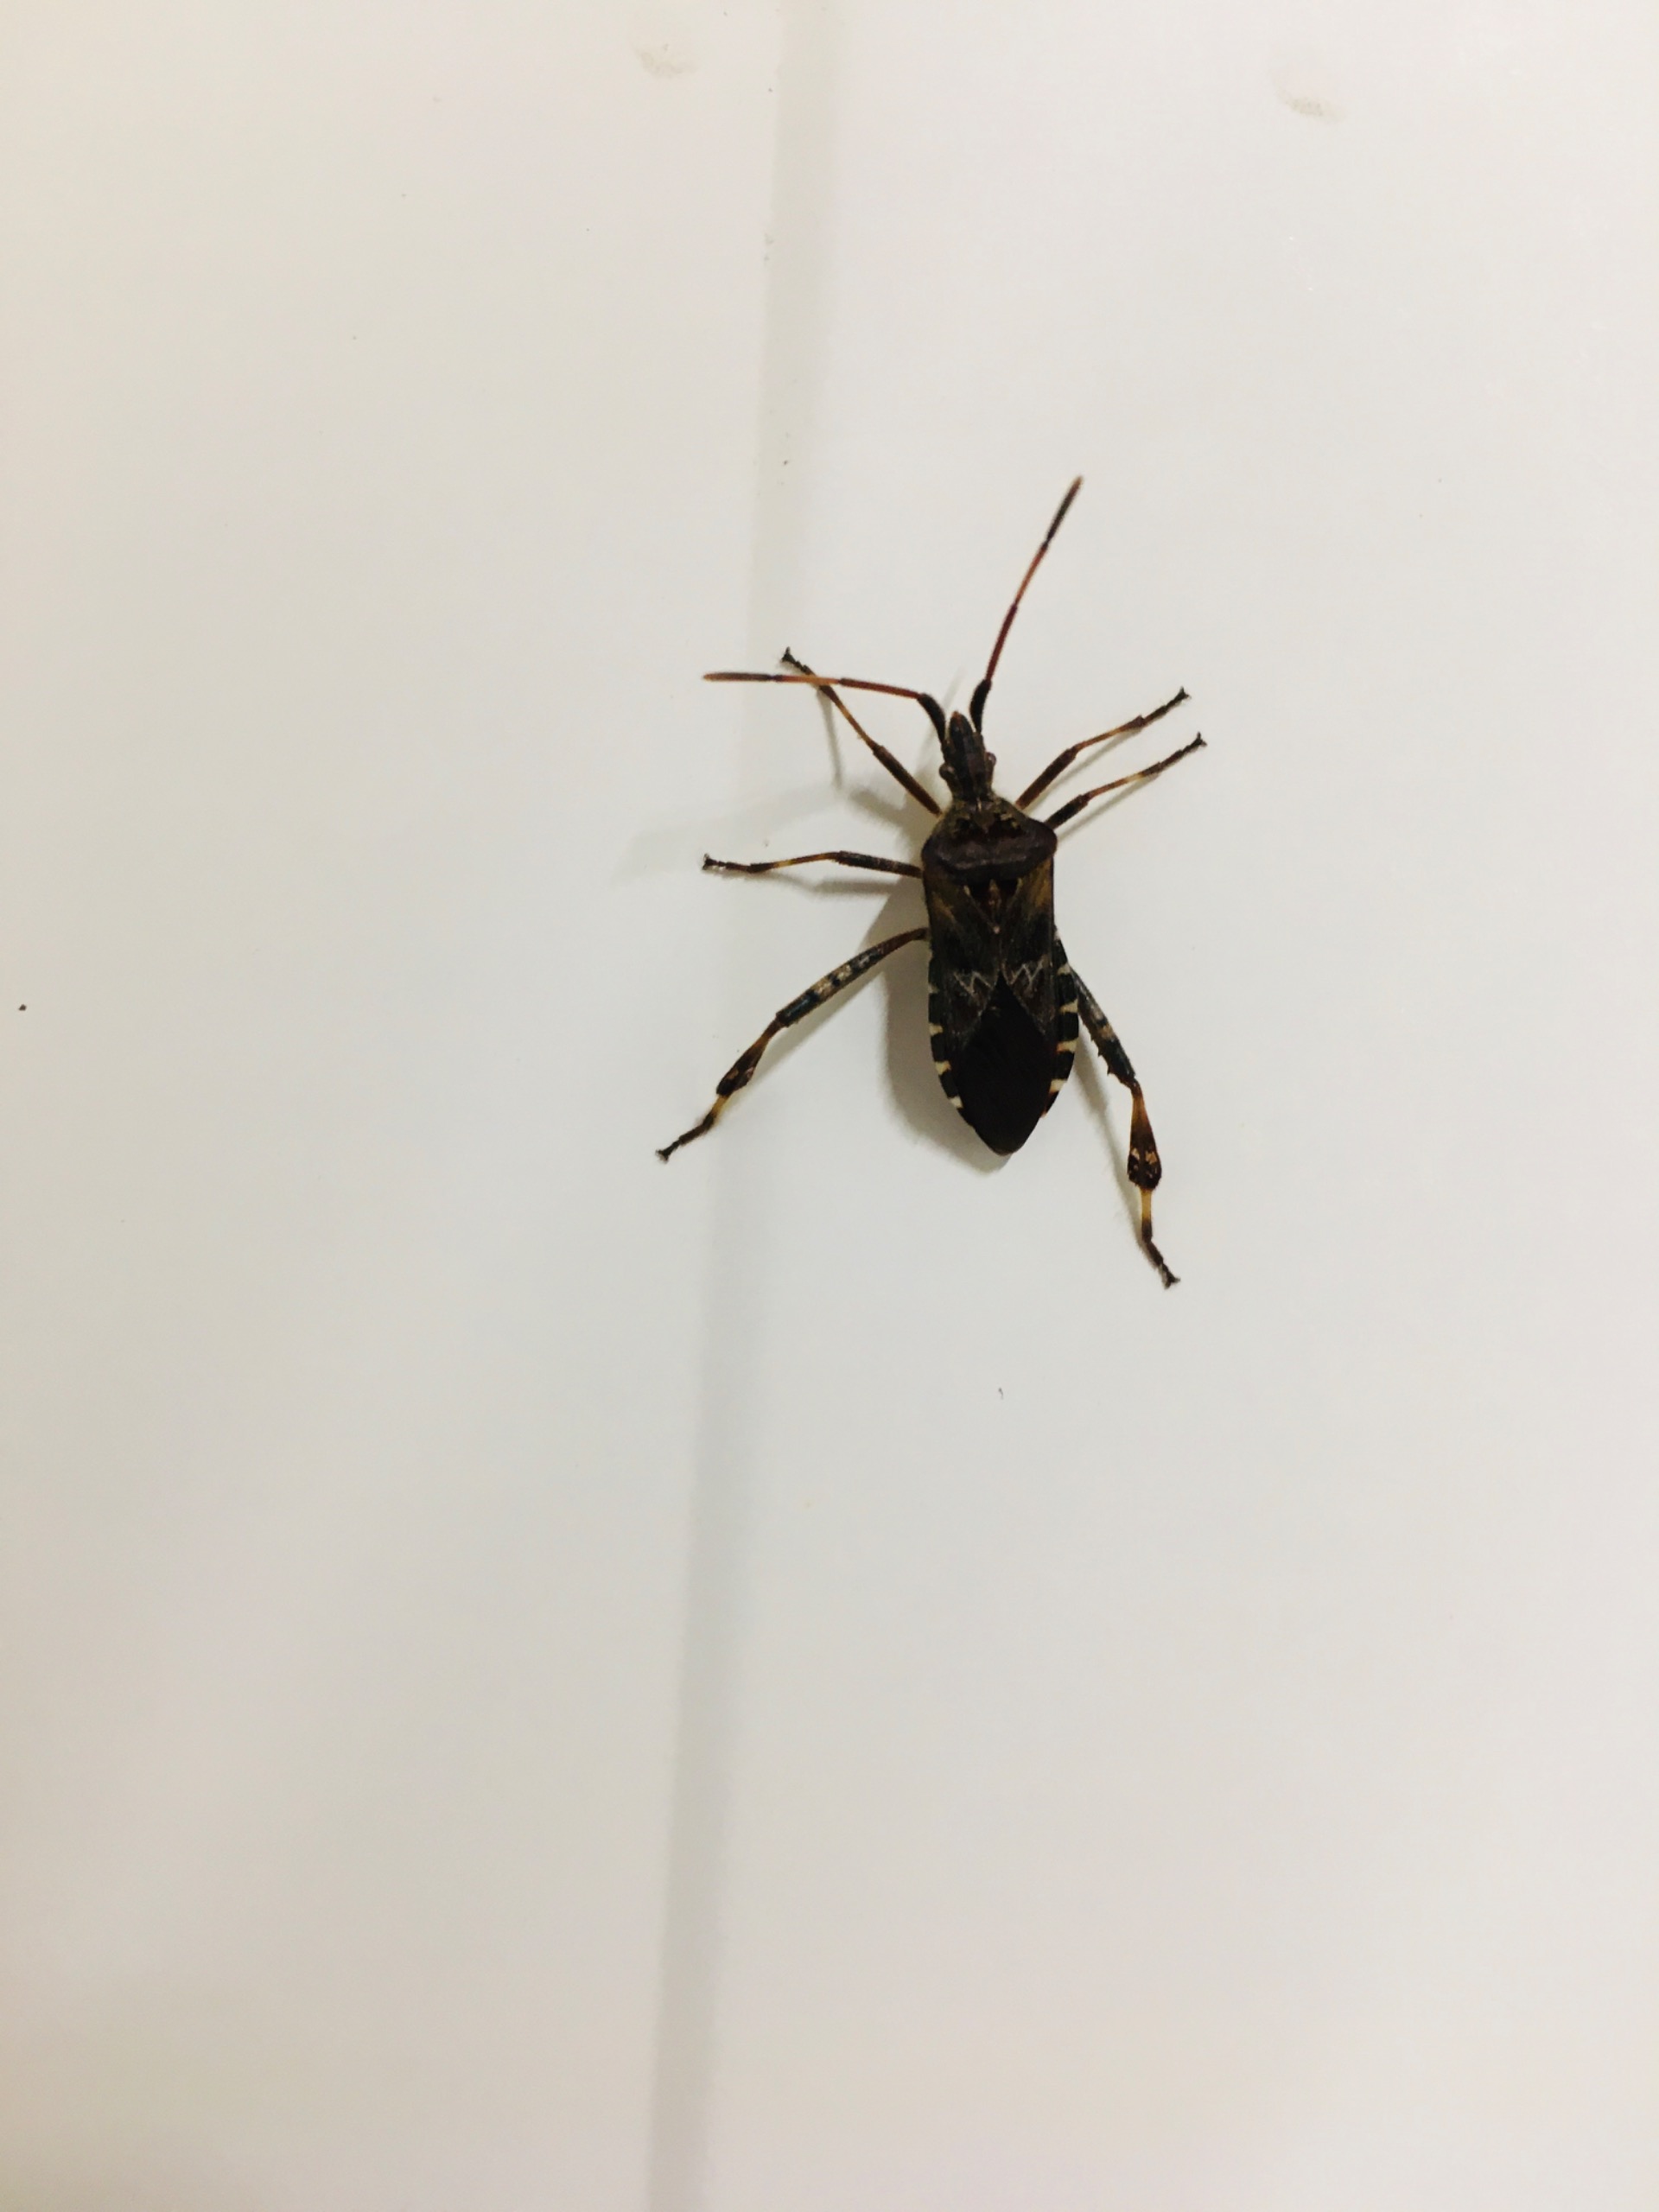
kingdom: Animalia
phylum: Arthropoda
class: Insecta
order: Hemiptera
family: Coreidae
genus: Leptoglossus
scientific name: Leptoglossus occidentalis
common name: Amerikansk fyrretæge
